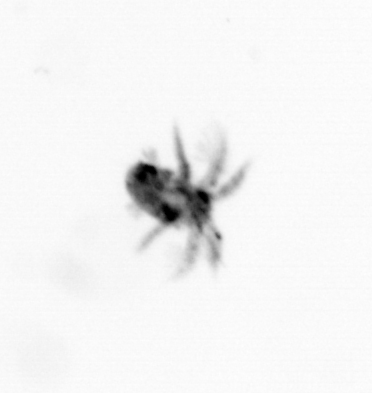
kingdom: Animalia
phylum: Arthropoda
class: Copepoda
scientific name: Copepoda
